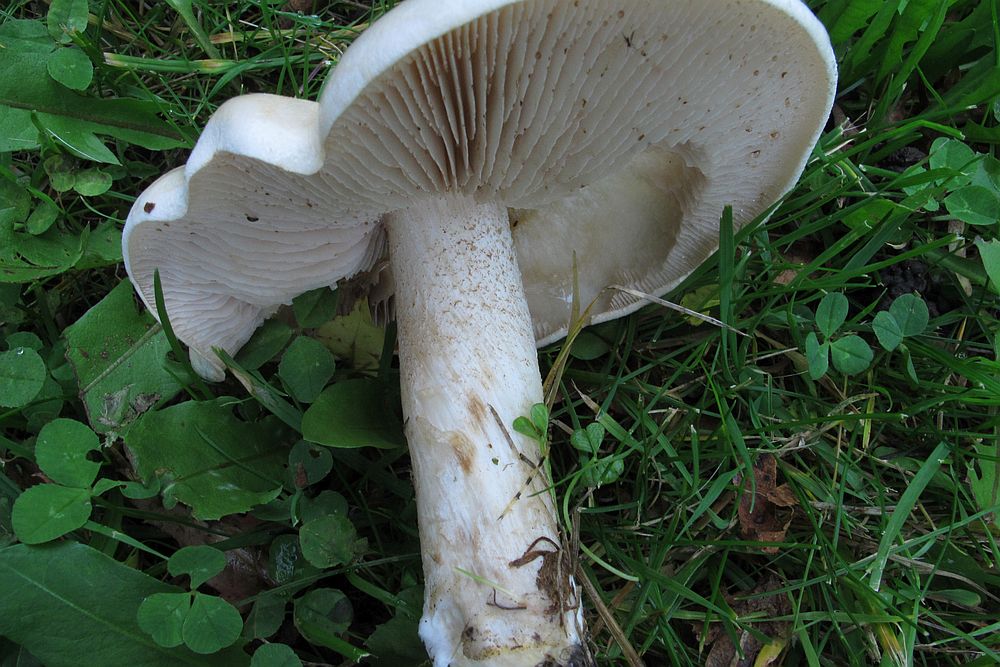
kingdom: Fungi
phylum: Basidiomycota
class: Agaricomycetes
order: Agaricales
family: Hymenogastraceae
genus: Hebeloma
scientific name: Hebeloma sinapizans
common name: ræddike-tåreblad
